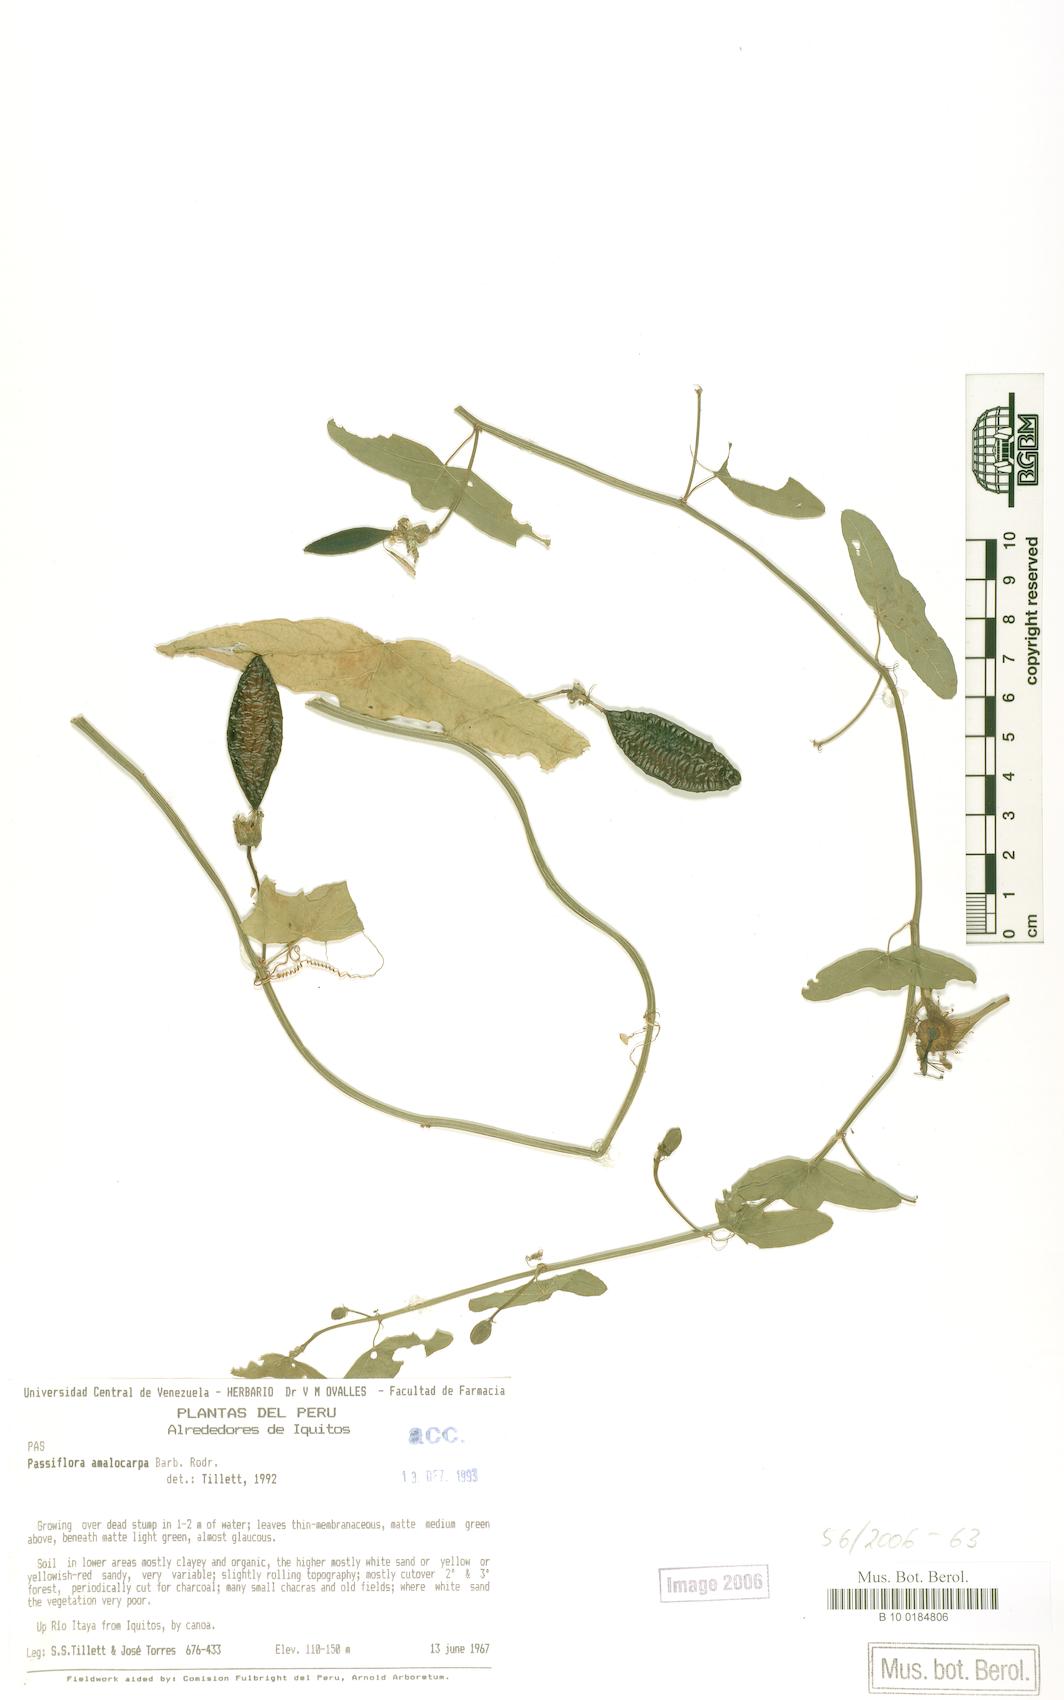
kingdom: Plantae
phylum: Tracheophyta
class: Magnoliopsida
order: Malpighiales
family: Passifloraceae
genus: Passiflora
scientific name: Passiflora amalocarpa
